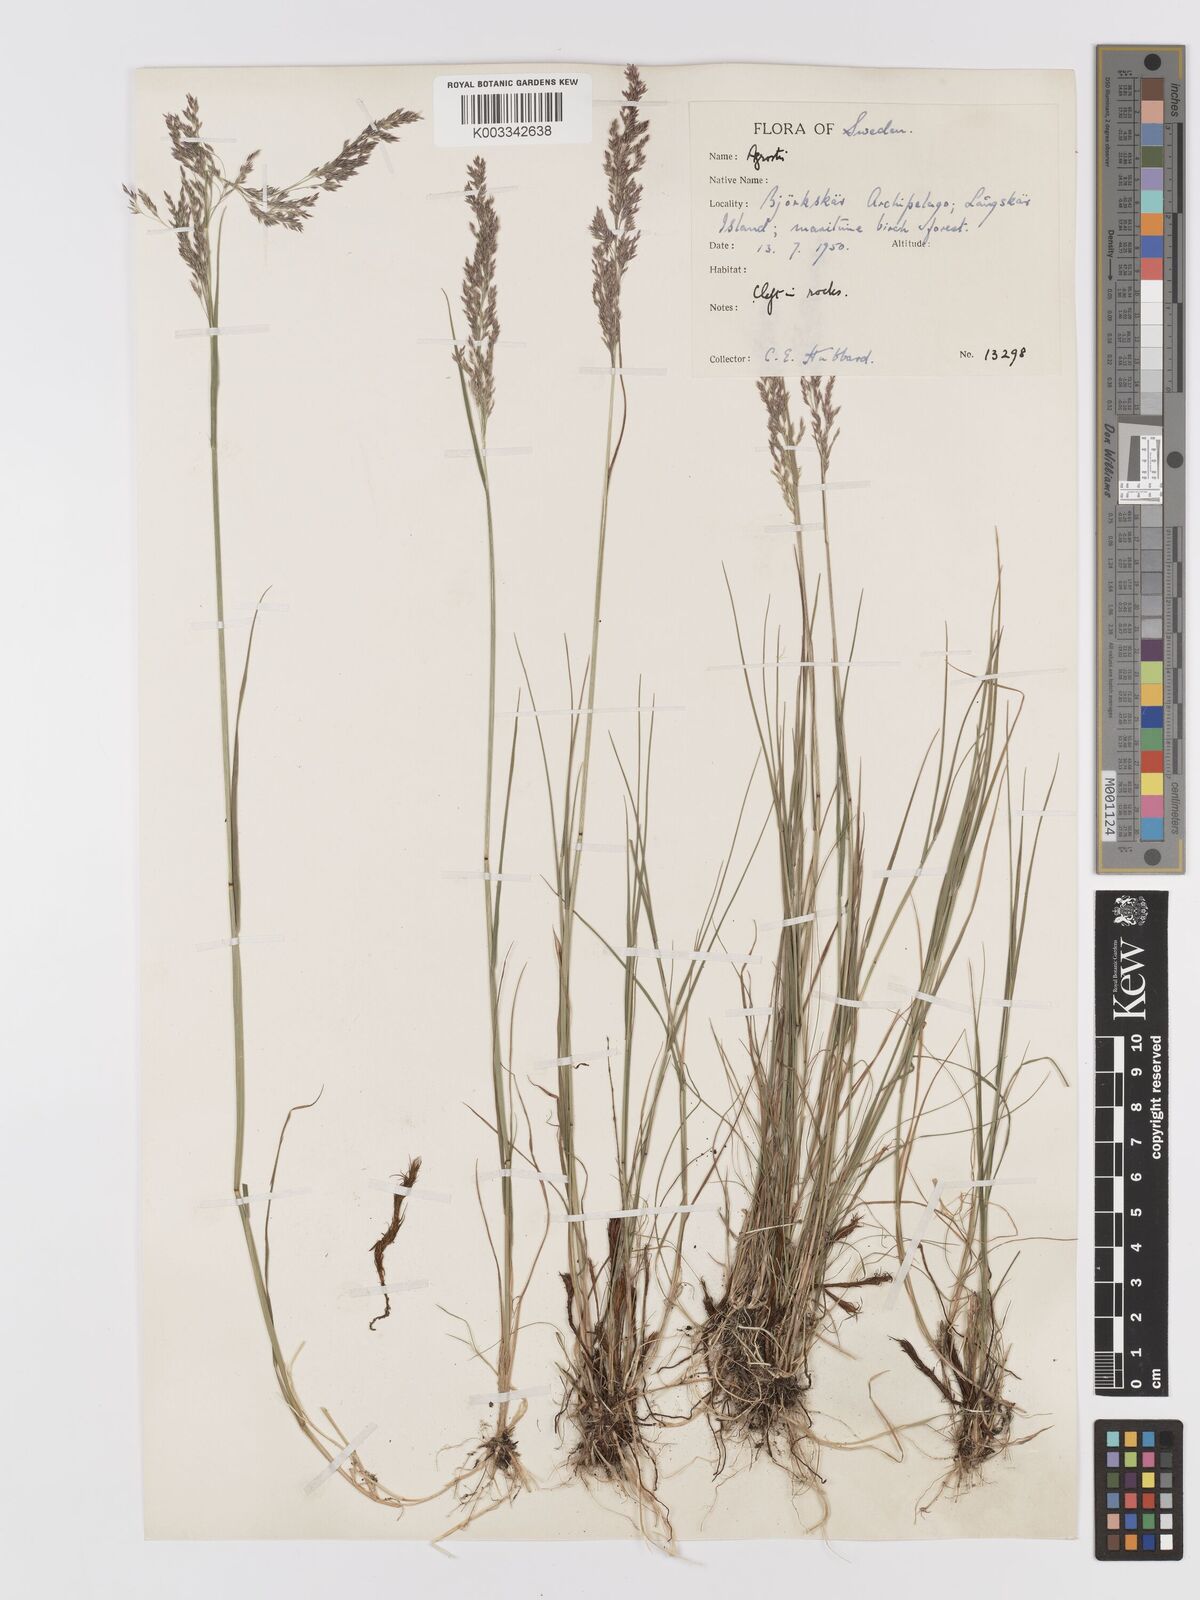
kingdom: Plantae
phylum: Tracheophyta
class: Liliopsida
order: Poales
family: Poaceae
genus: Agrostis
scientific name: Agrostis
